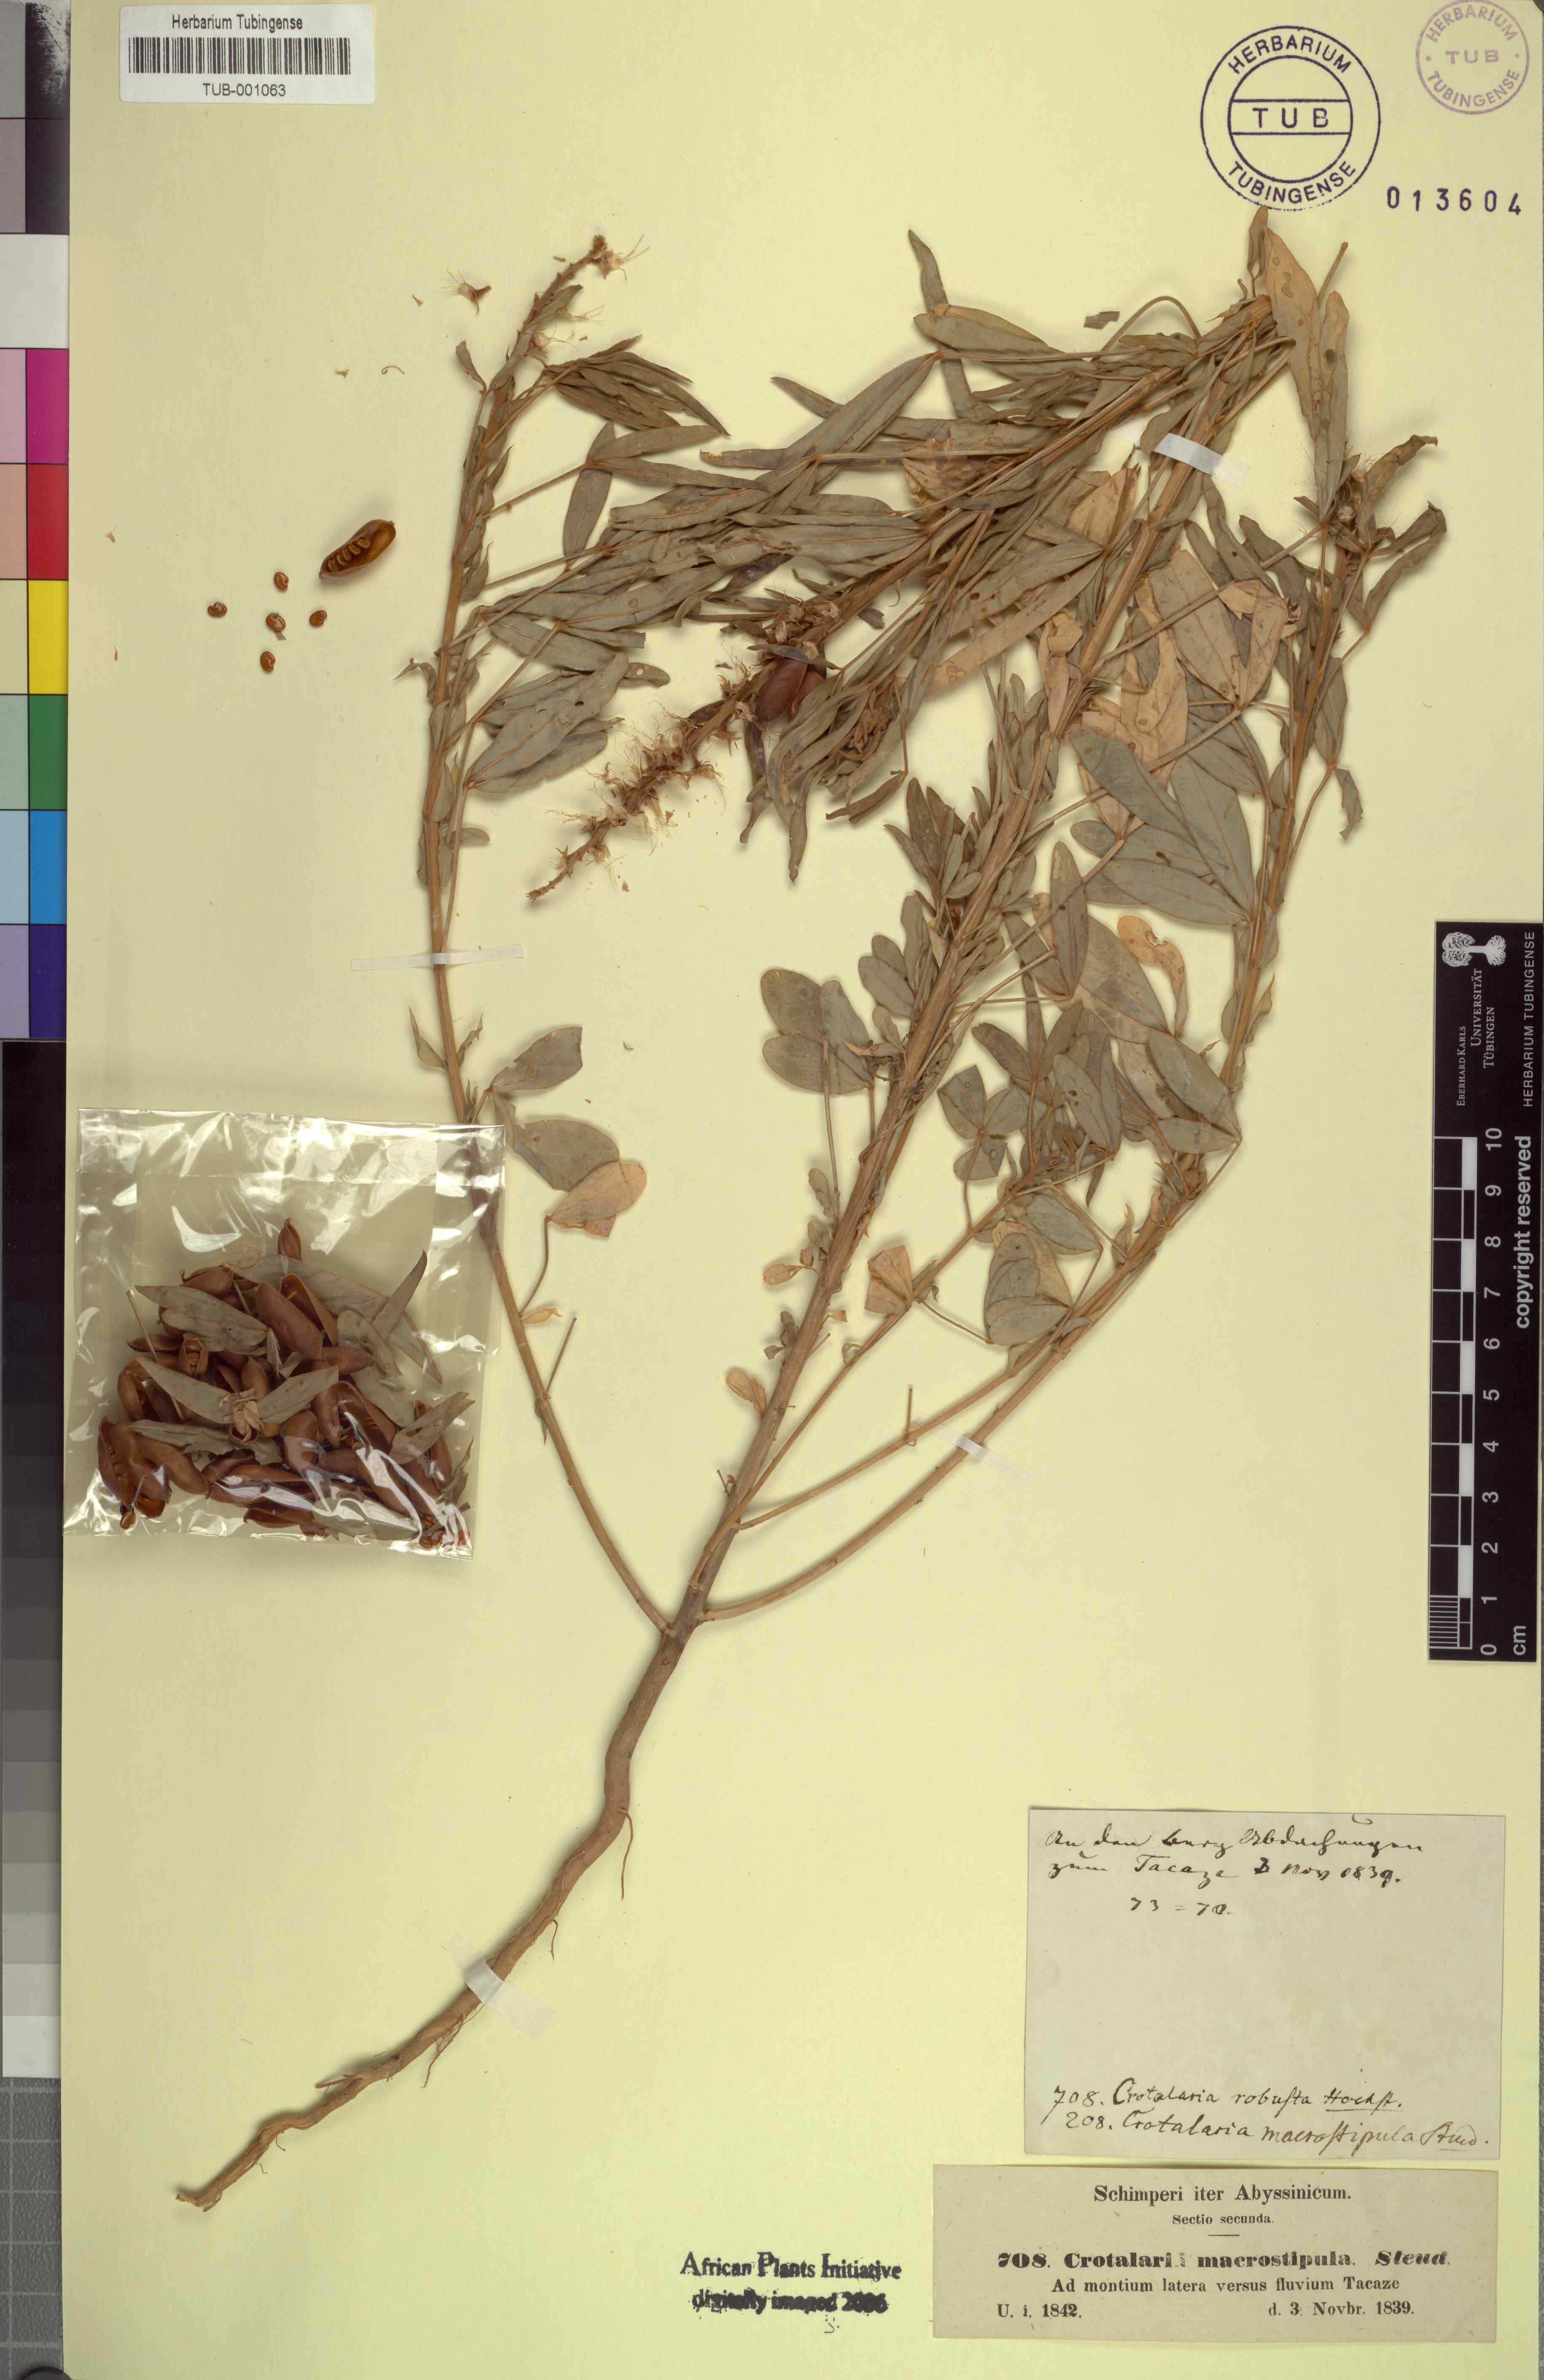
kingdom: Plantae
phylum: Tracheophyta
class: Magnoliopsida
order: Fabales
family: Fabaceae
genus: Crotalaria
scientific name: Crotalaria goreensis
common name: Gambia-pea
